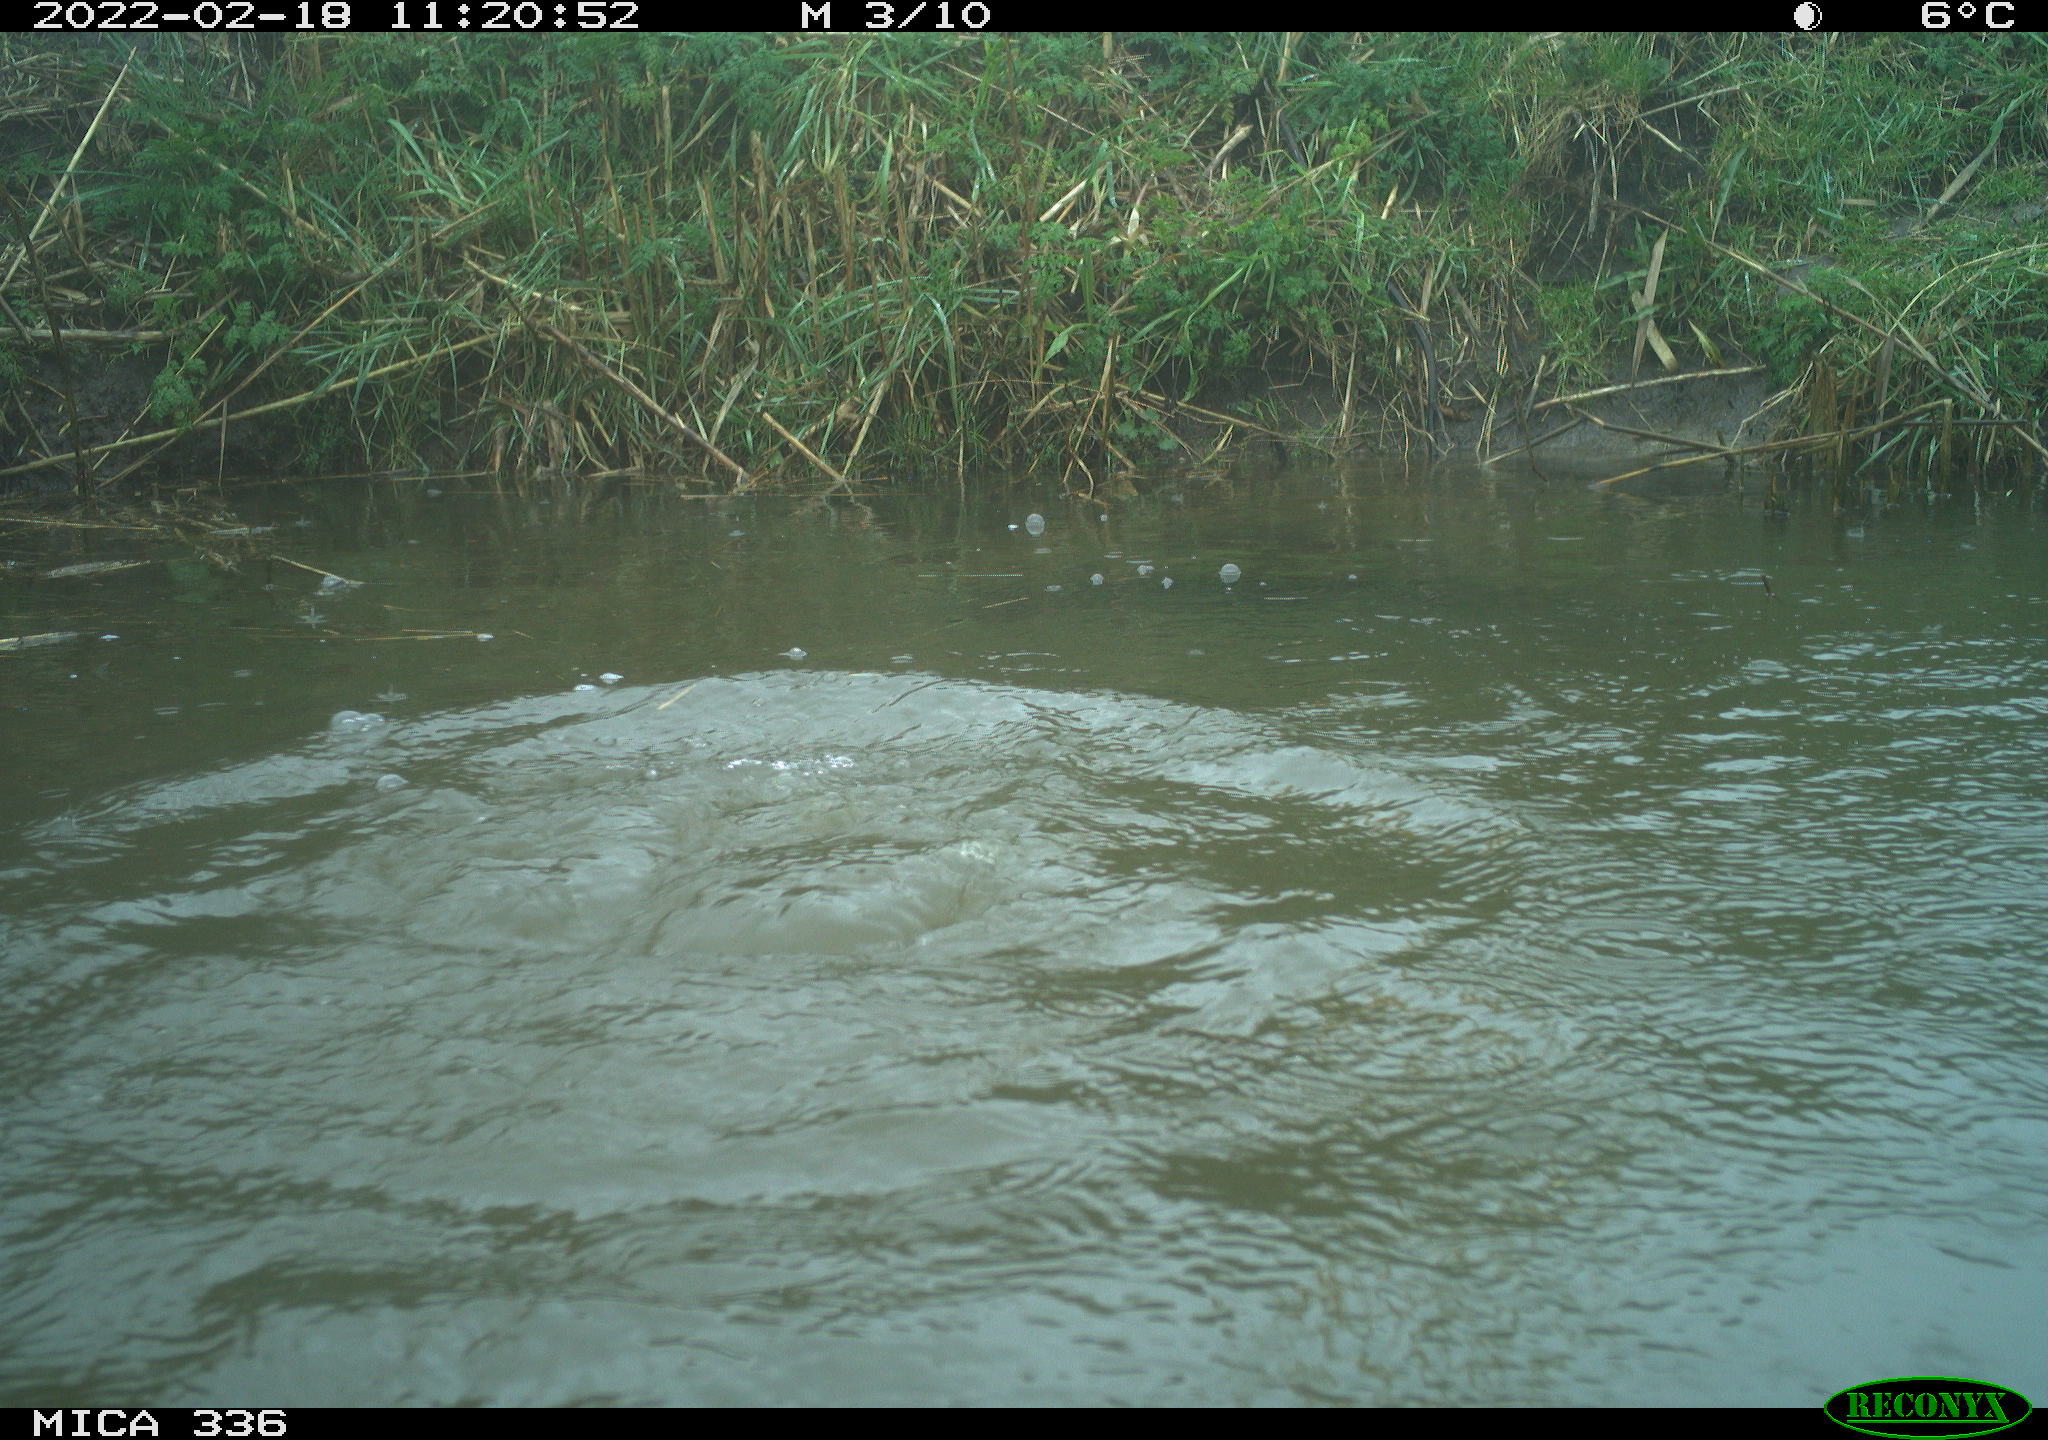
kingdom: Animalia
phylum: Chordata
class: Aves
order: Suliformes
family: Phalacrocoracidae
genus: Phalacrocorax
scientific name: Phalacrocorax carbo
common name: Great cormorant
